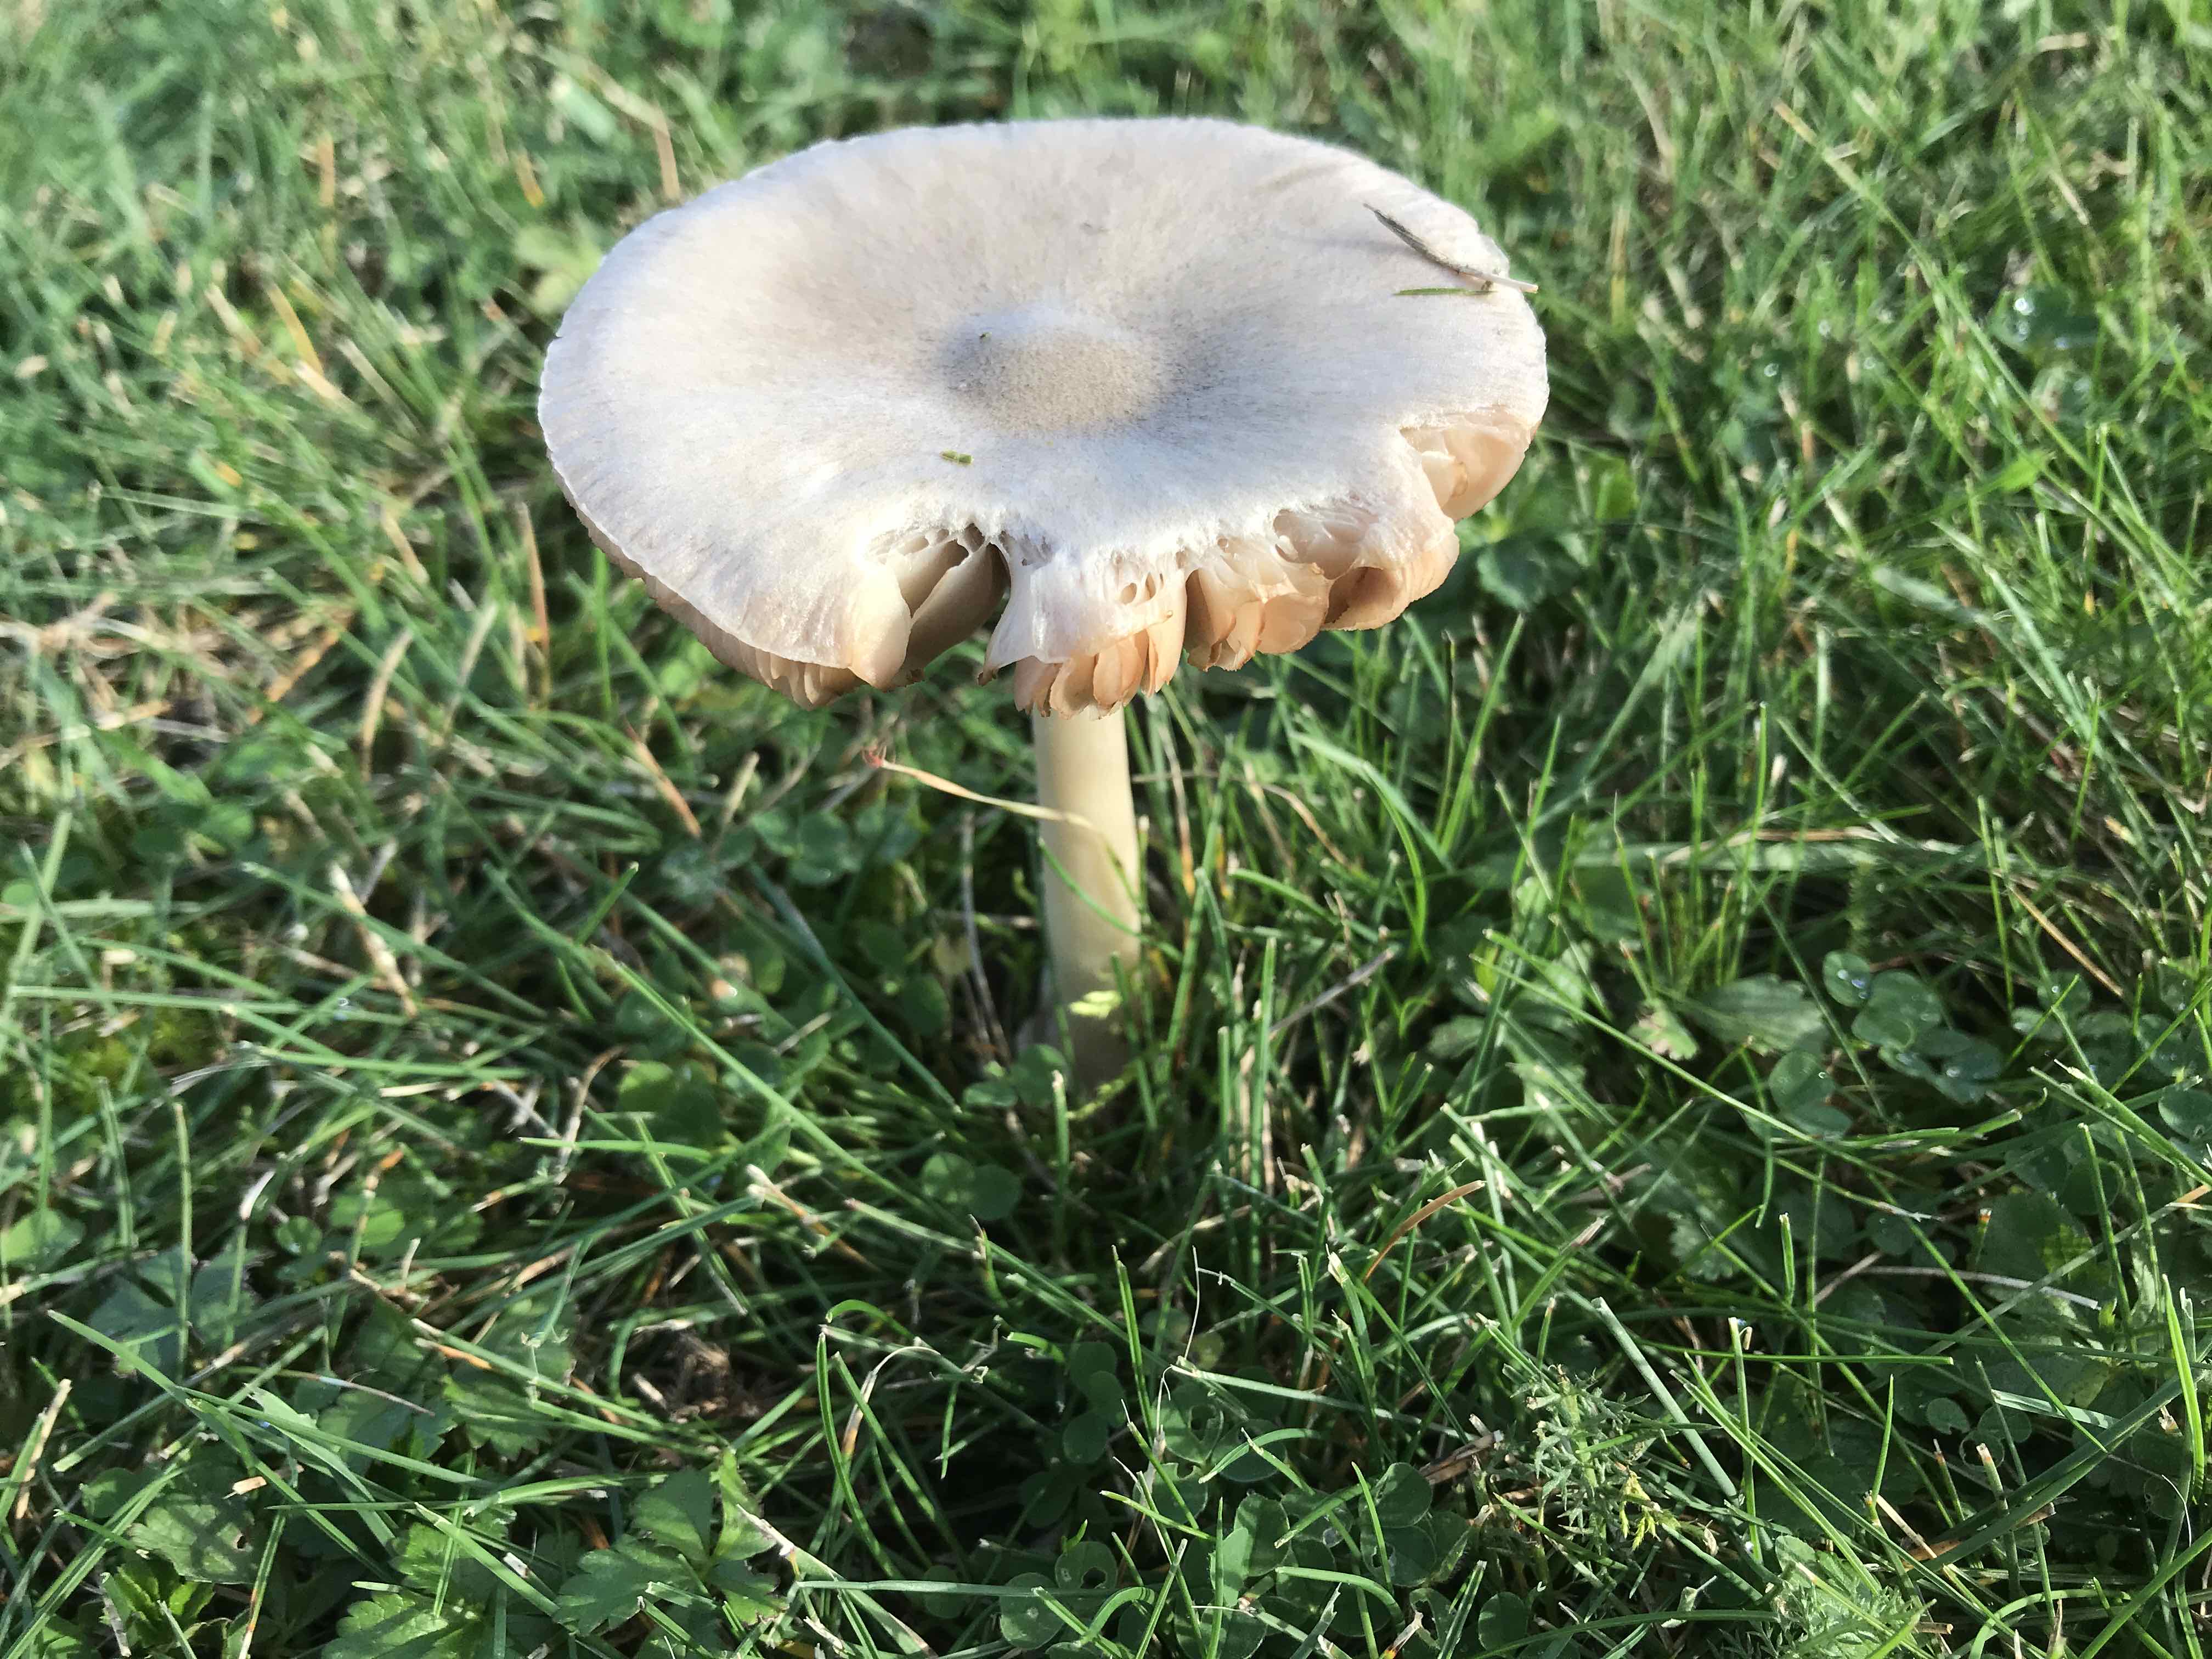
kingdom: Fungi
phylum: Basidiomycota
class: Agaricomycetes
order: Agaricales
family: Pluteaceae
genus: Volvopluteus
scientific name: Volvopluteus gloiocephalus
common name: høj posesvamp
